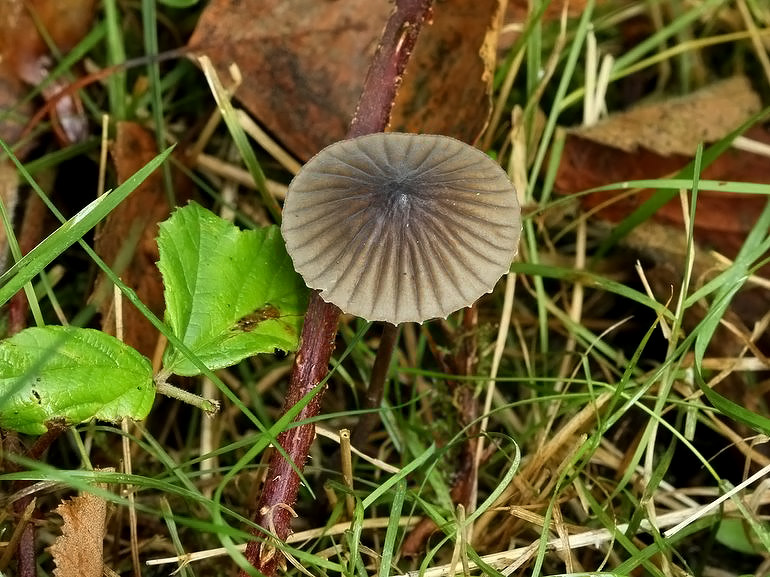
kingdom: Fungi
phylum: Basidiomycota
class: Agaricomycetes
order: Agaricales
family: Mycenaceae
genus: Mycena
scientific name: Mycena galopus
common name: hvidmælket huesvamp
